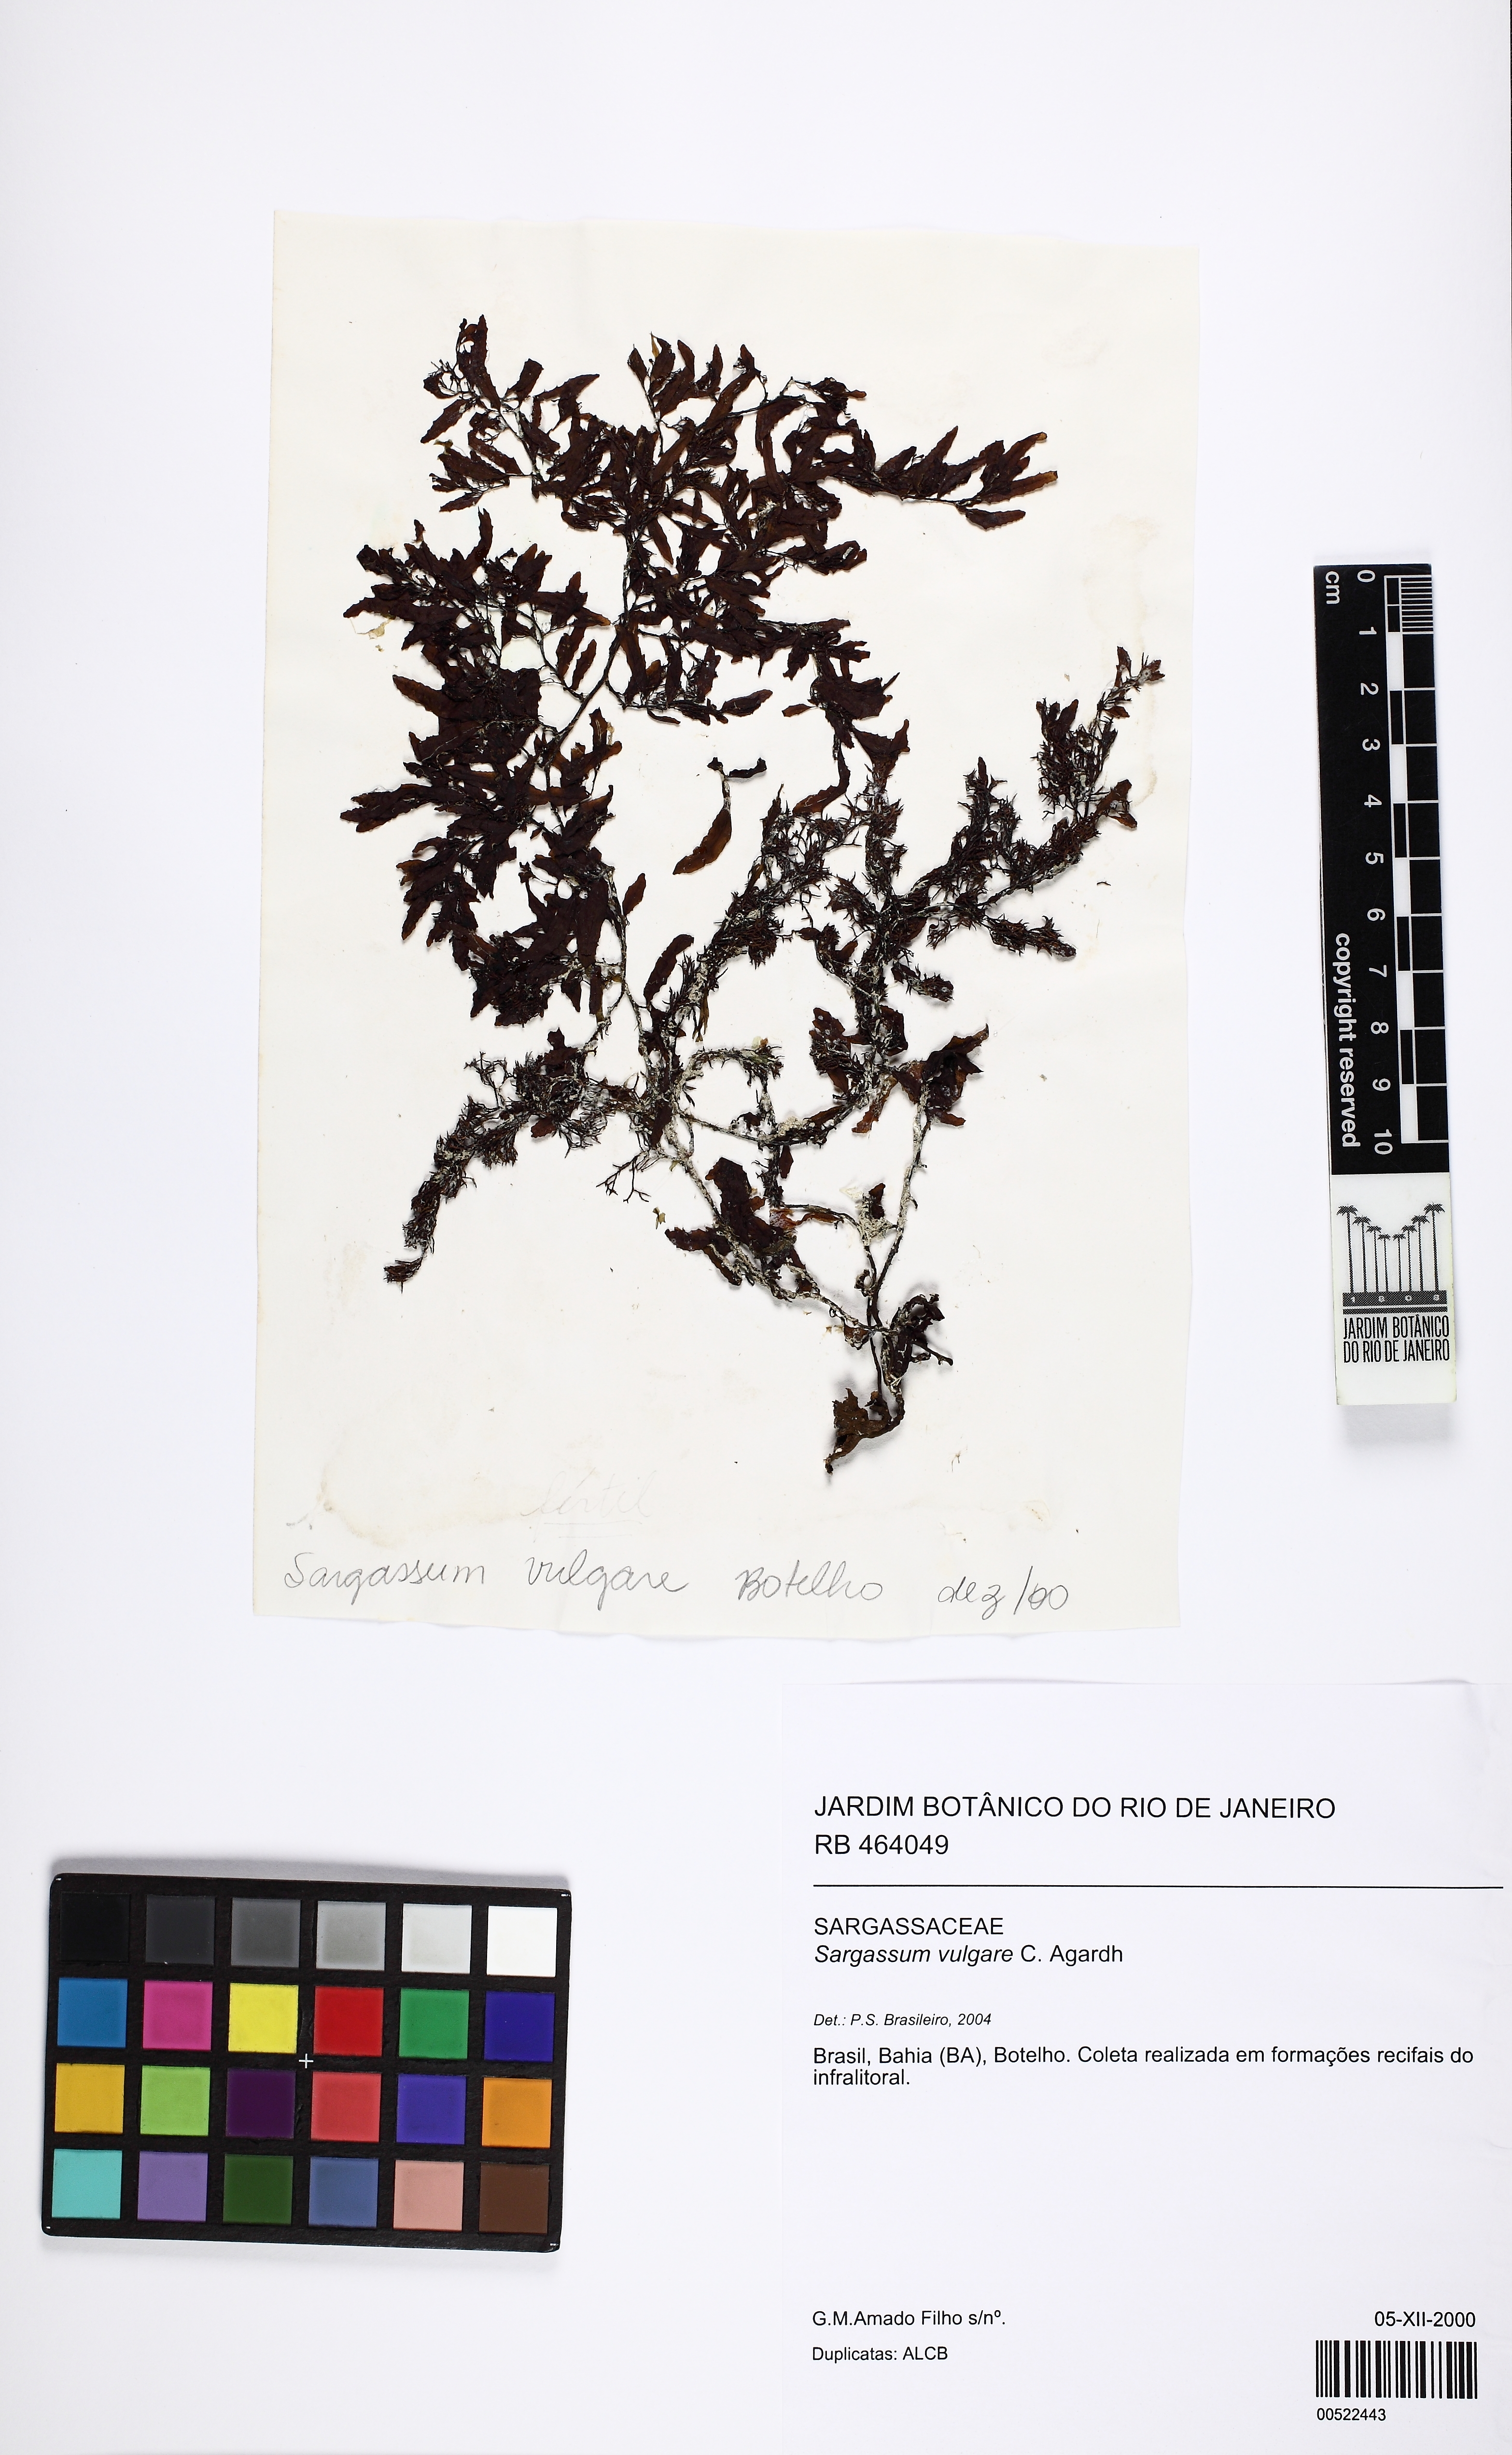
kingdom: Chromista
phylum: Ochrophyta
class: Phaeophyceae
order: Fucales
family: Sargassaceae
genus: Sargassum
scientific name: Sargassum vulgare
